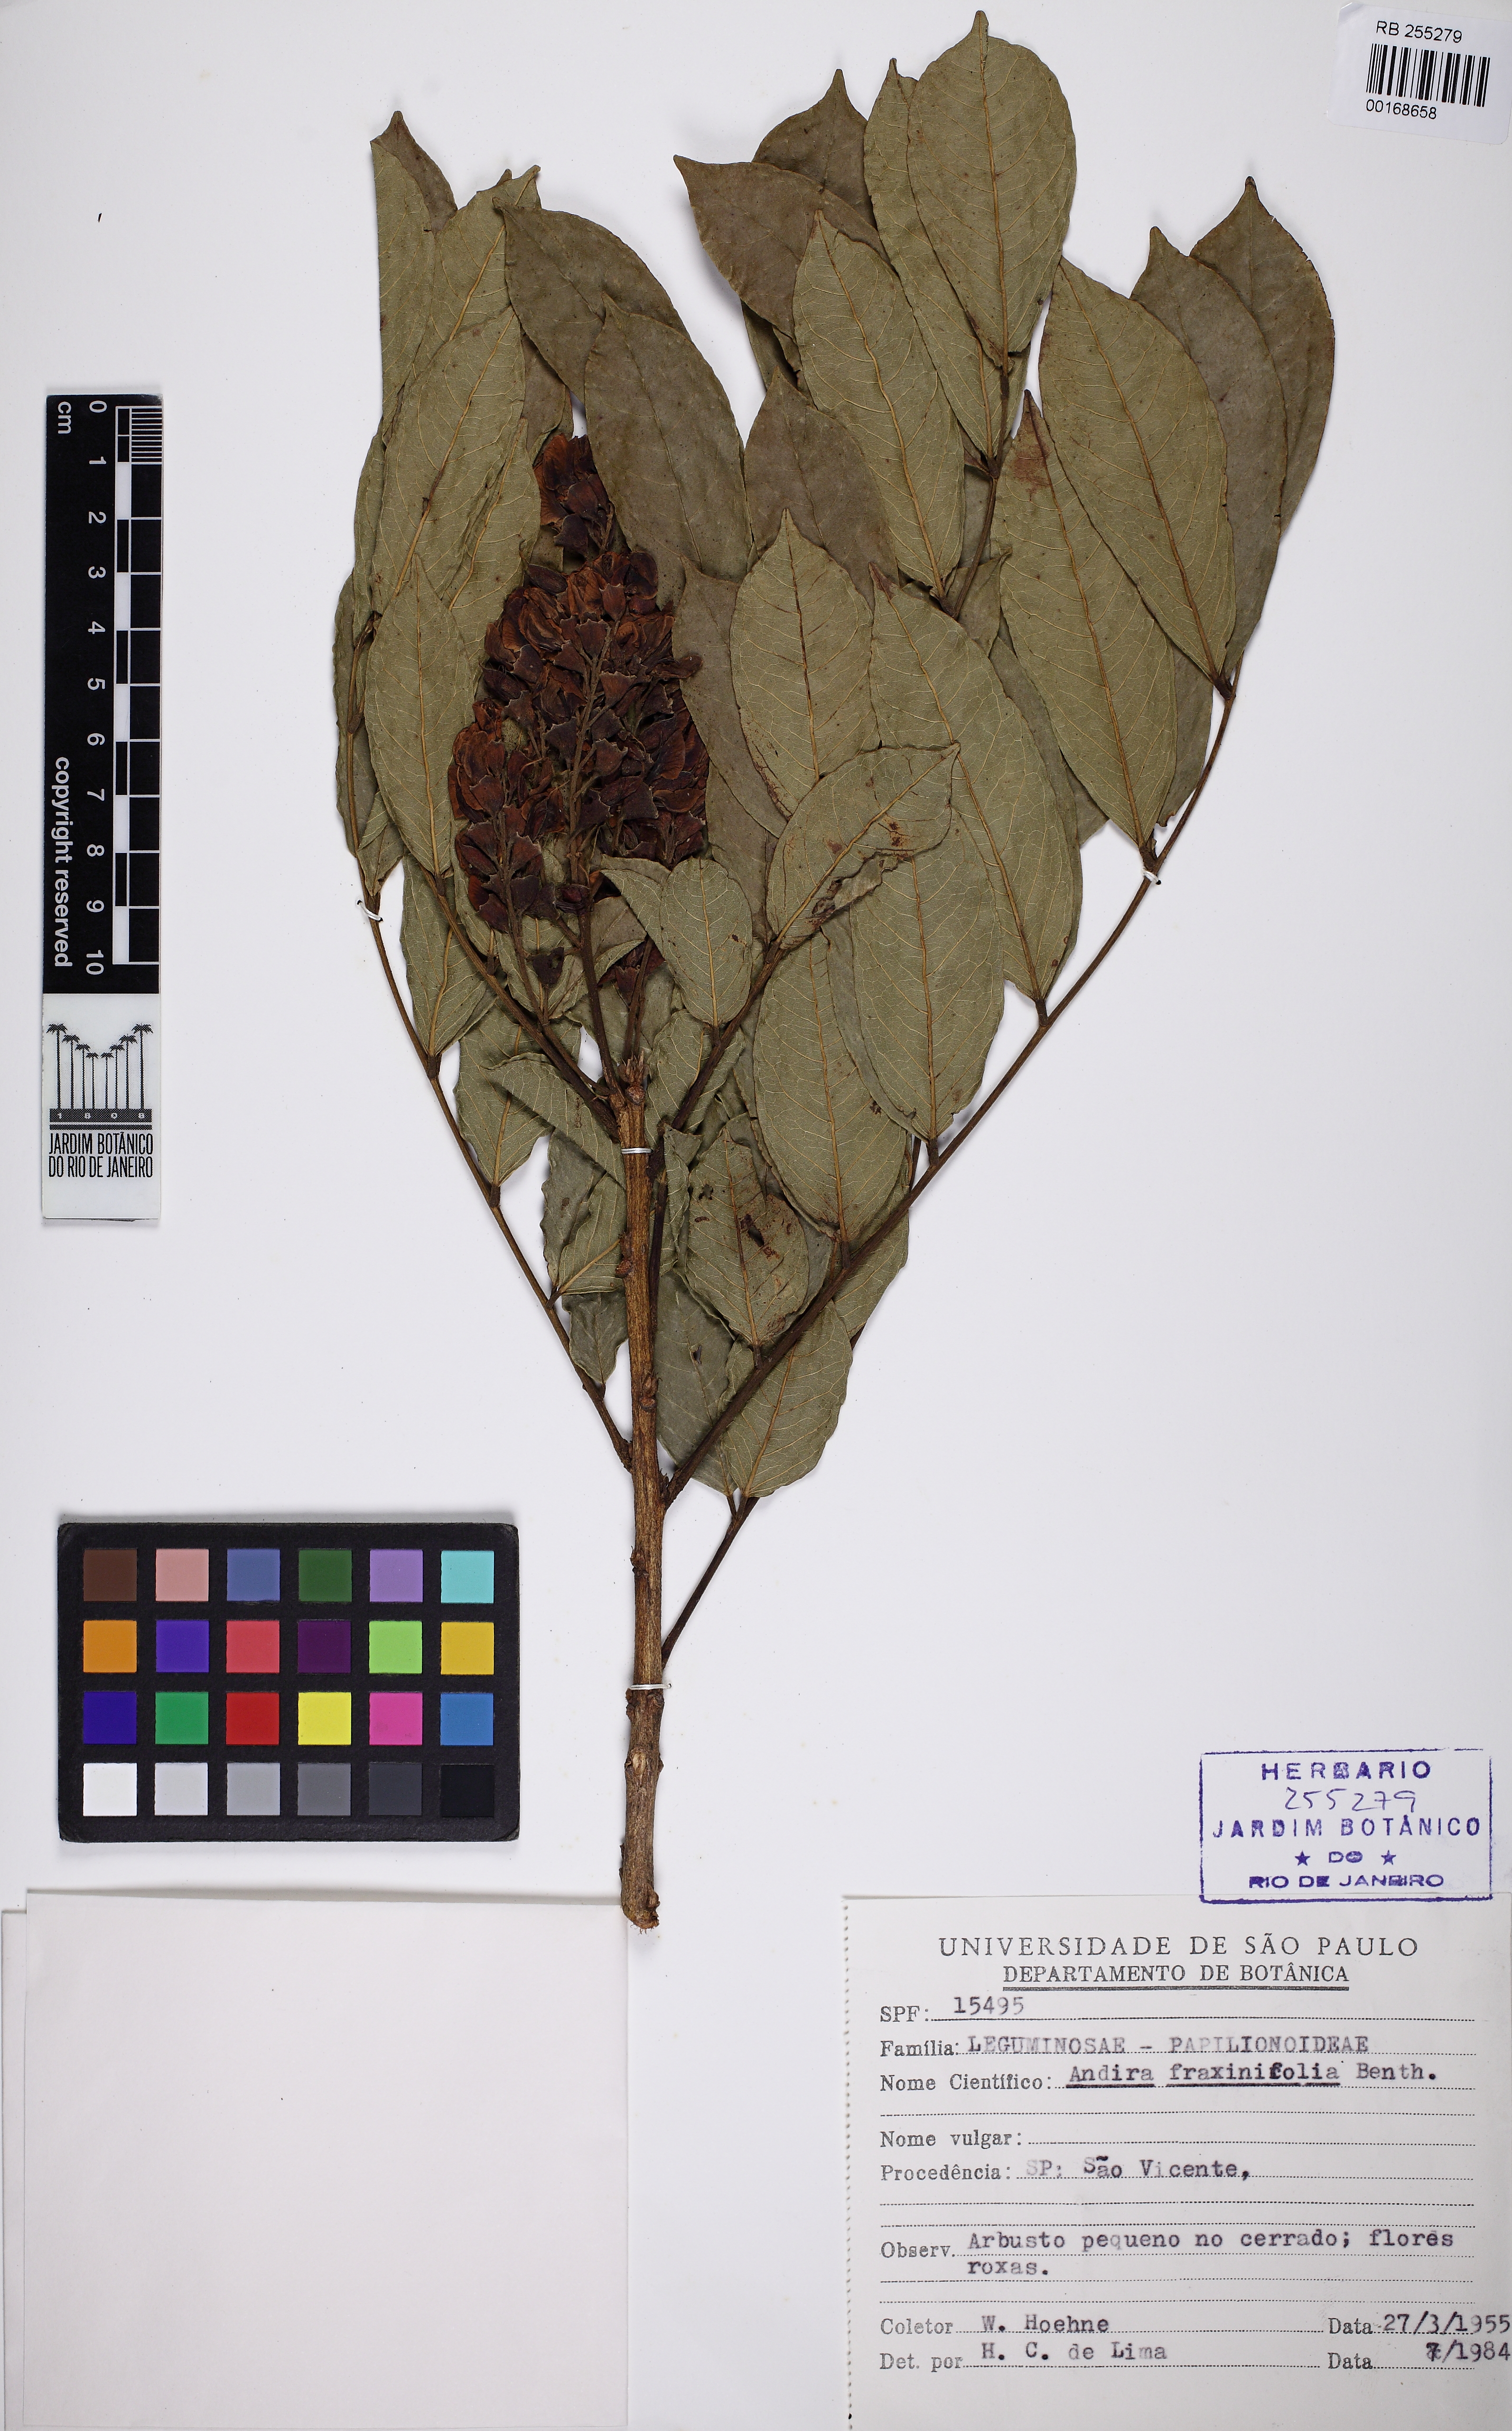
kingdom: Plantae
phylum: Tracheophyta
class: Magnoliopsida
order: Fabales
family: Fabaceae
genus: Andira
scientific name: Andira fraxinifolia
